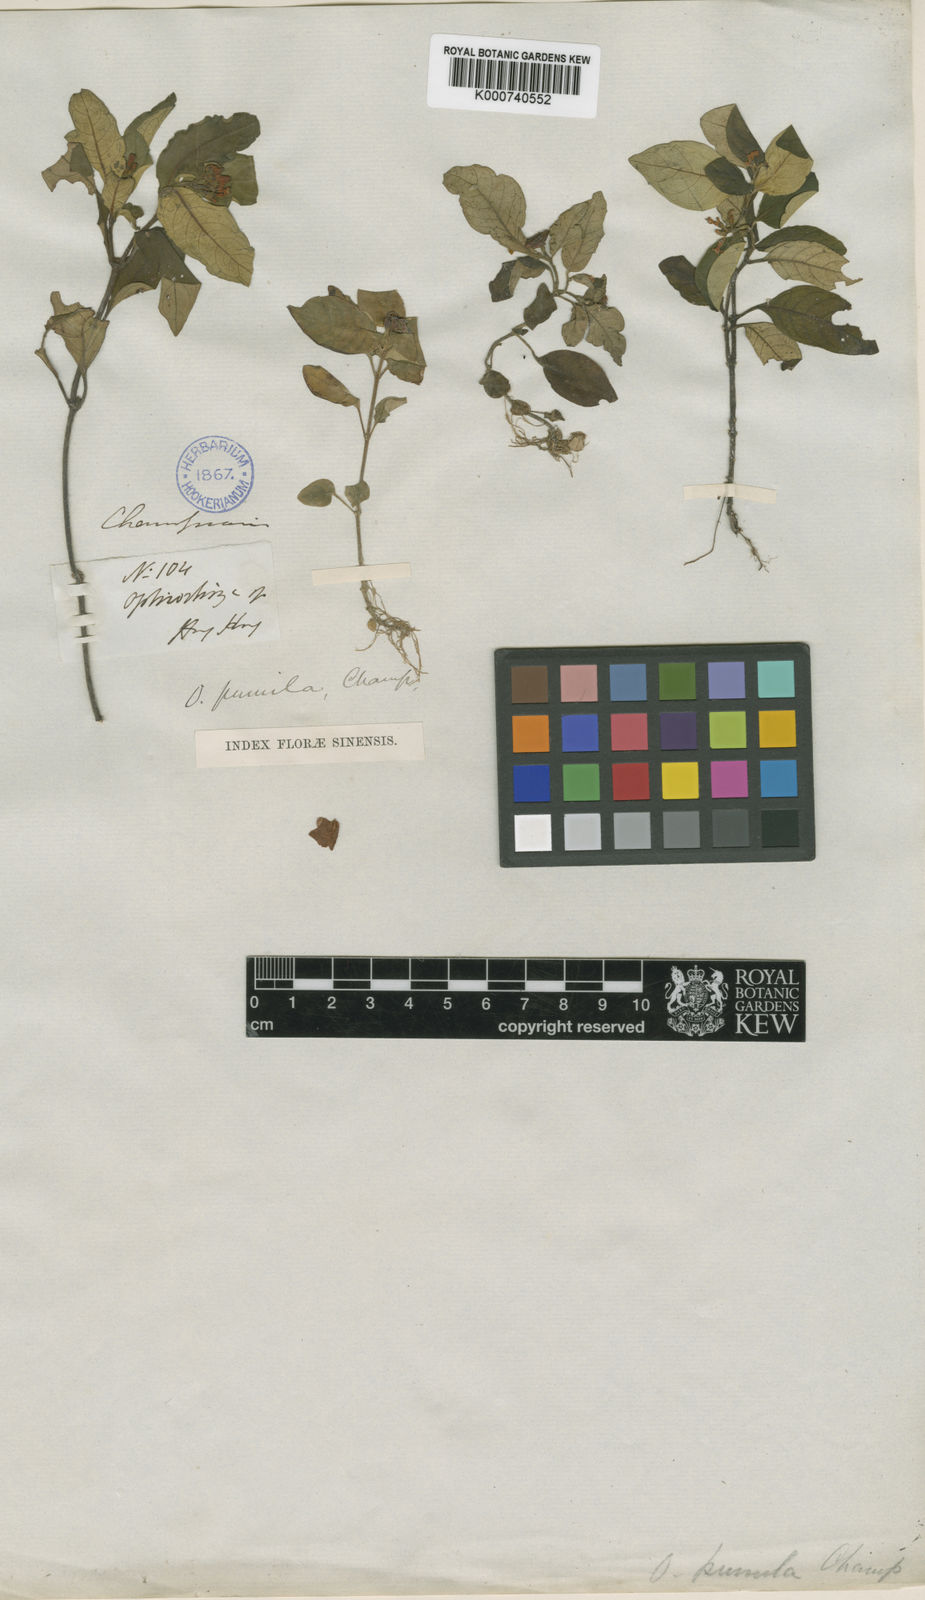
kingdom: Plantae
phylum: Tracheophyta
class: Magnoliopsida
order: Gentianales
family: Rubiaceae
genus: Ophiorrhiza
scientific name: Ophiorrhiza pumila
